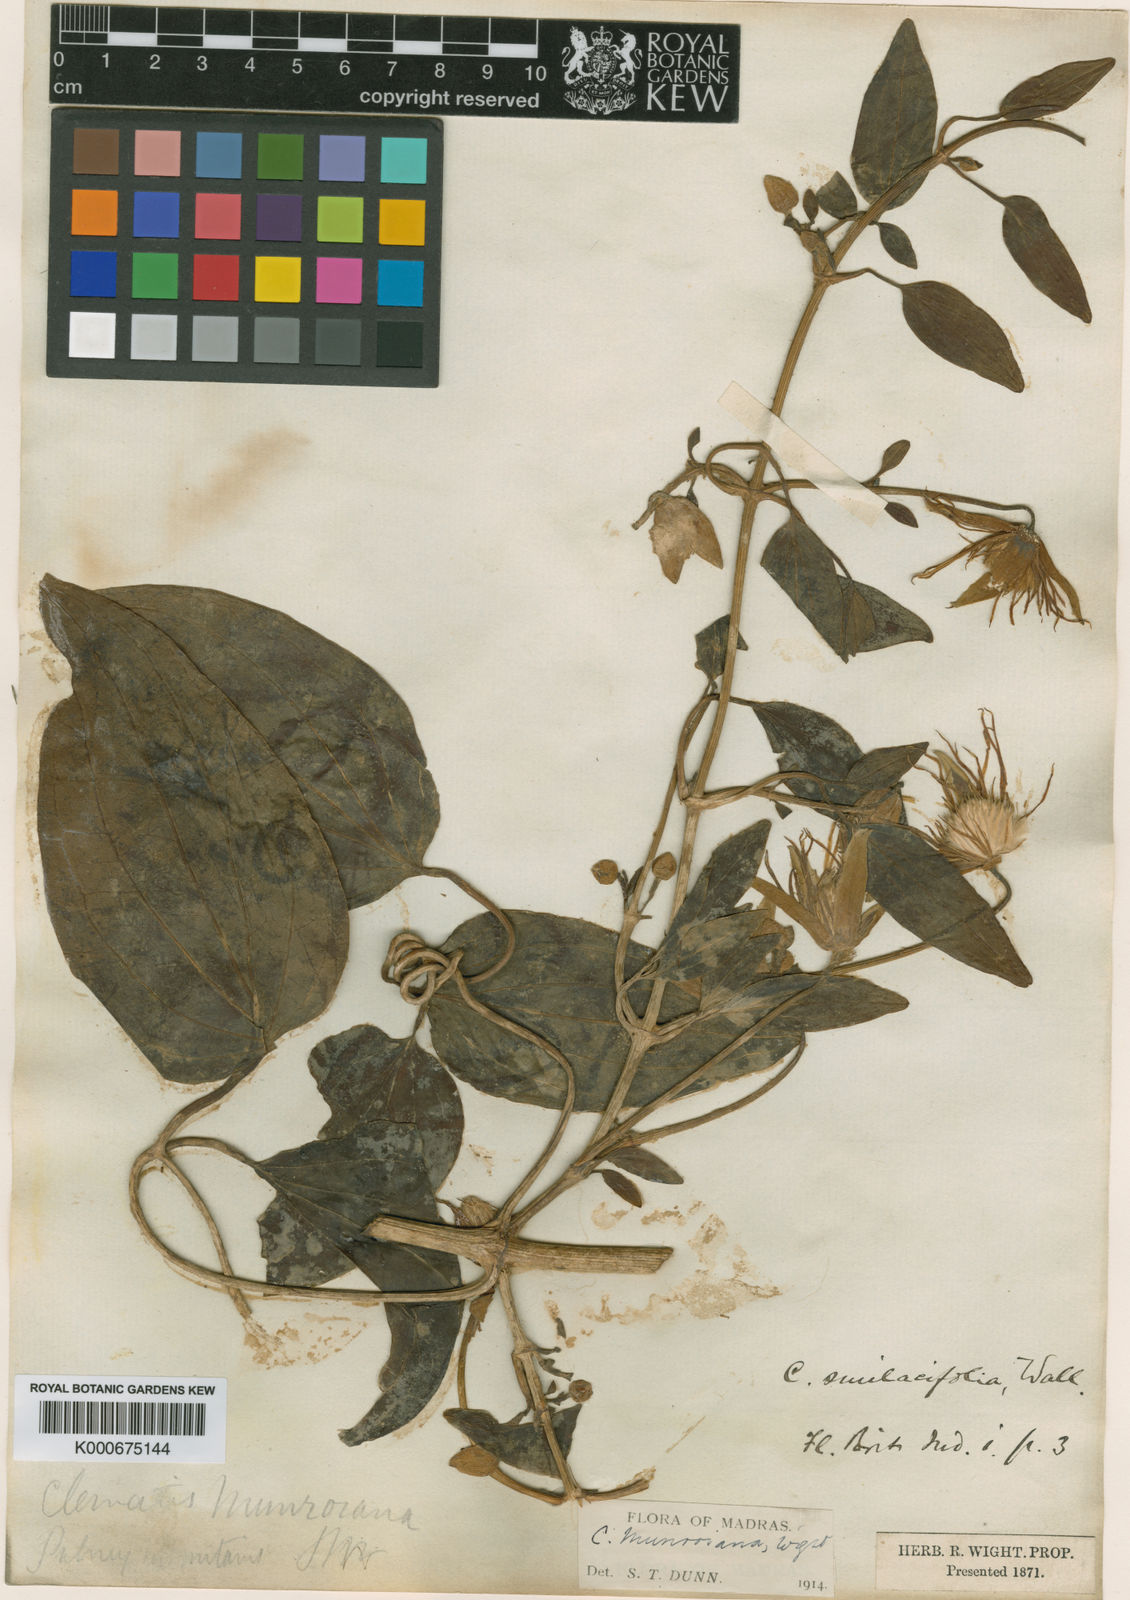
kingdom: Plantae
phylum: Tracheophyta
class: Magnoliopsida
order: Ranunculales
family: Ranunculaceae
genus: Clematis
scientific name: Clematis smilacifolia
